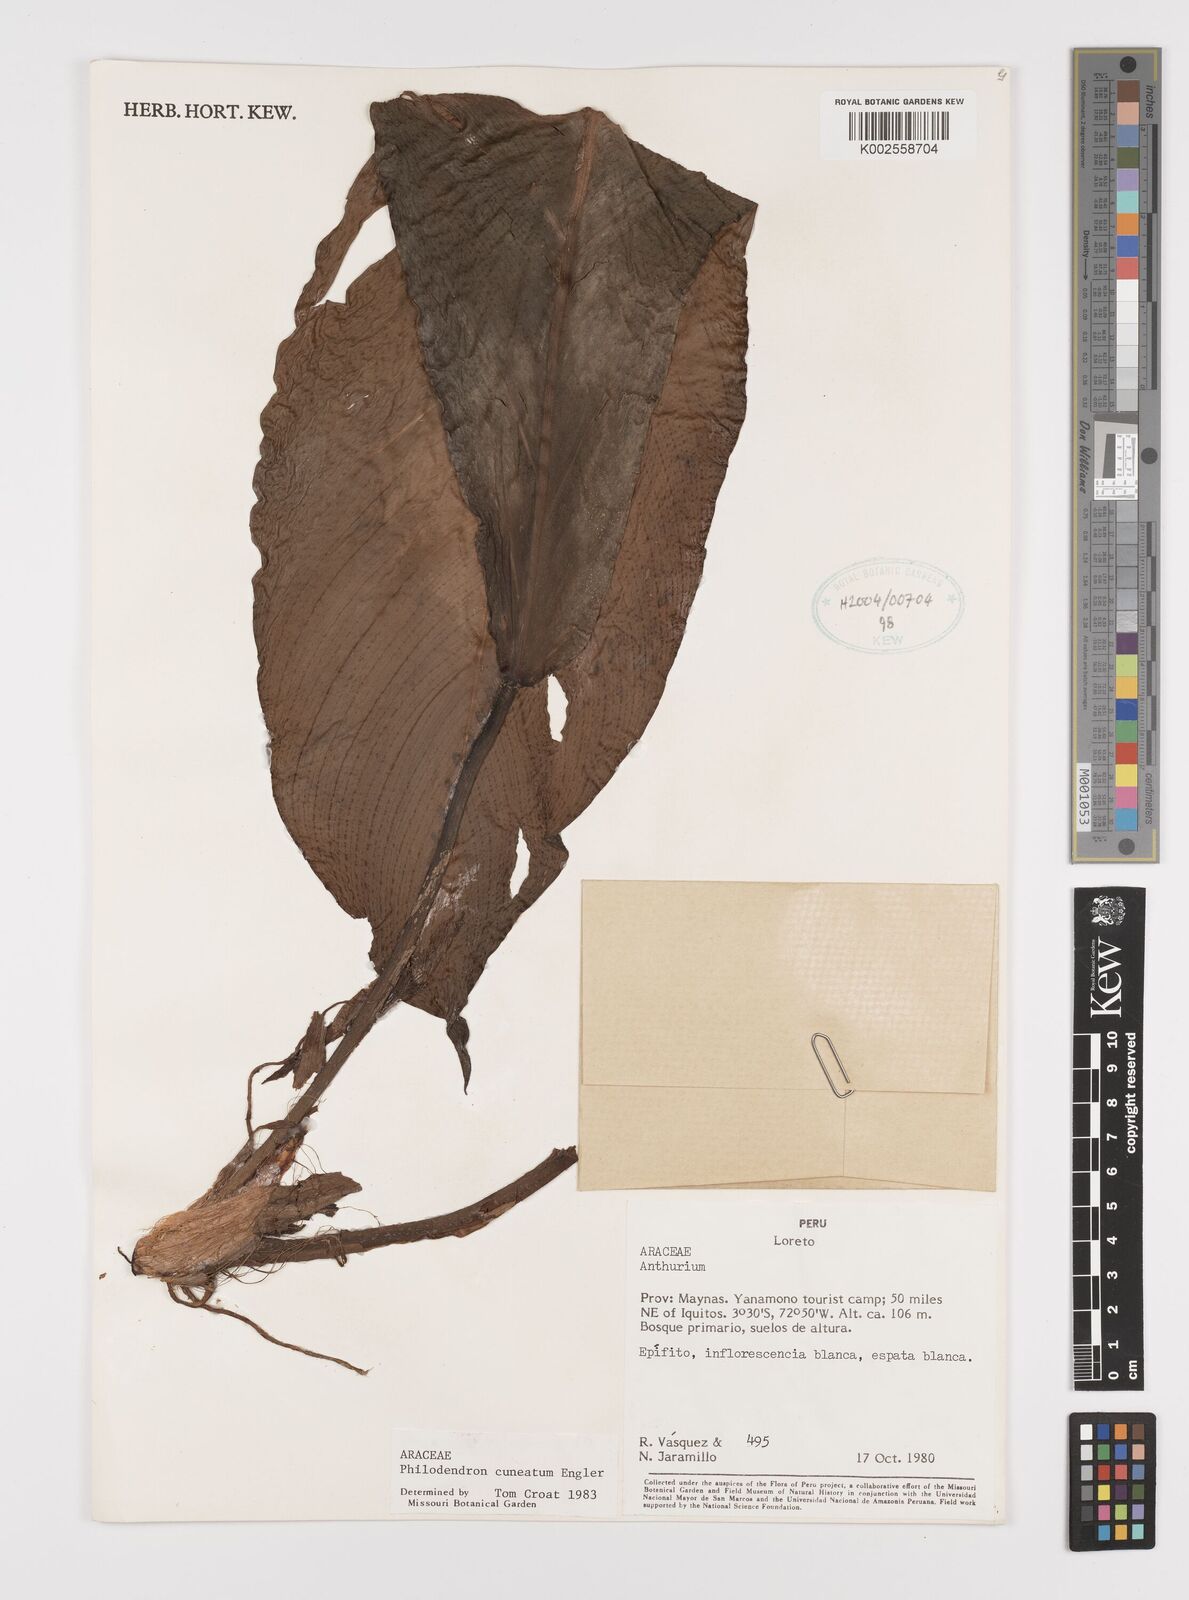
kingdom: Plantae
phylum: Tracheophyta
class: Liliopsida
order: Alismatales
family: Araceae
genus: Philodendron
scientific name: Philodendron cuneatum
